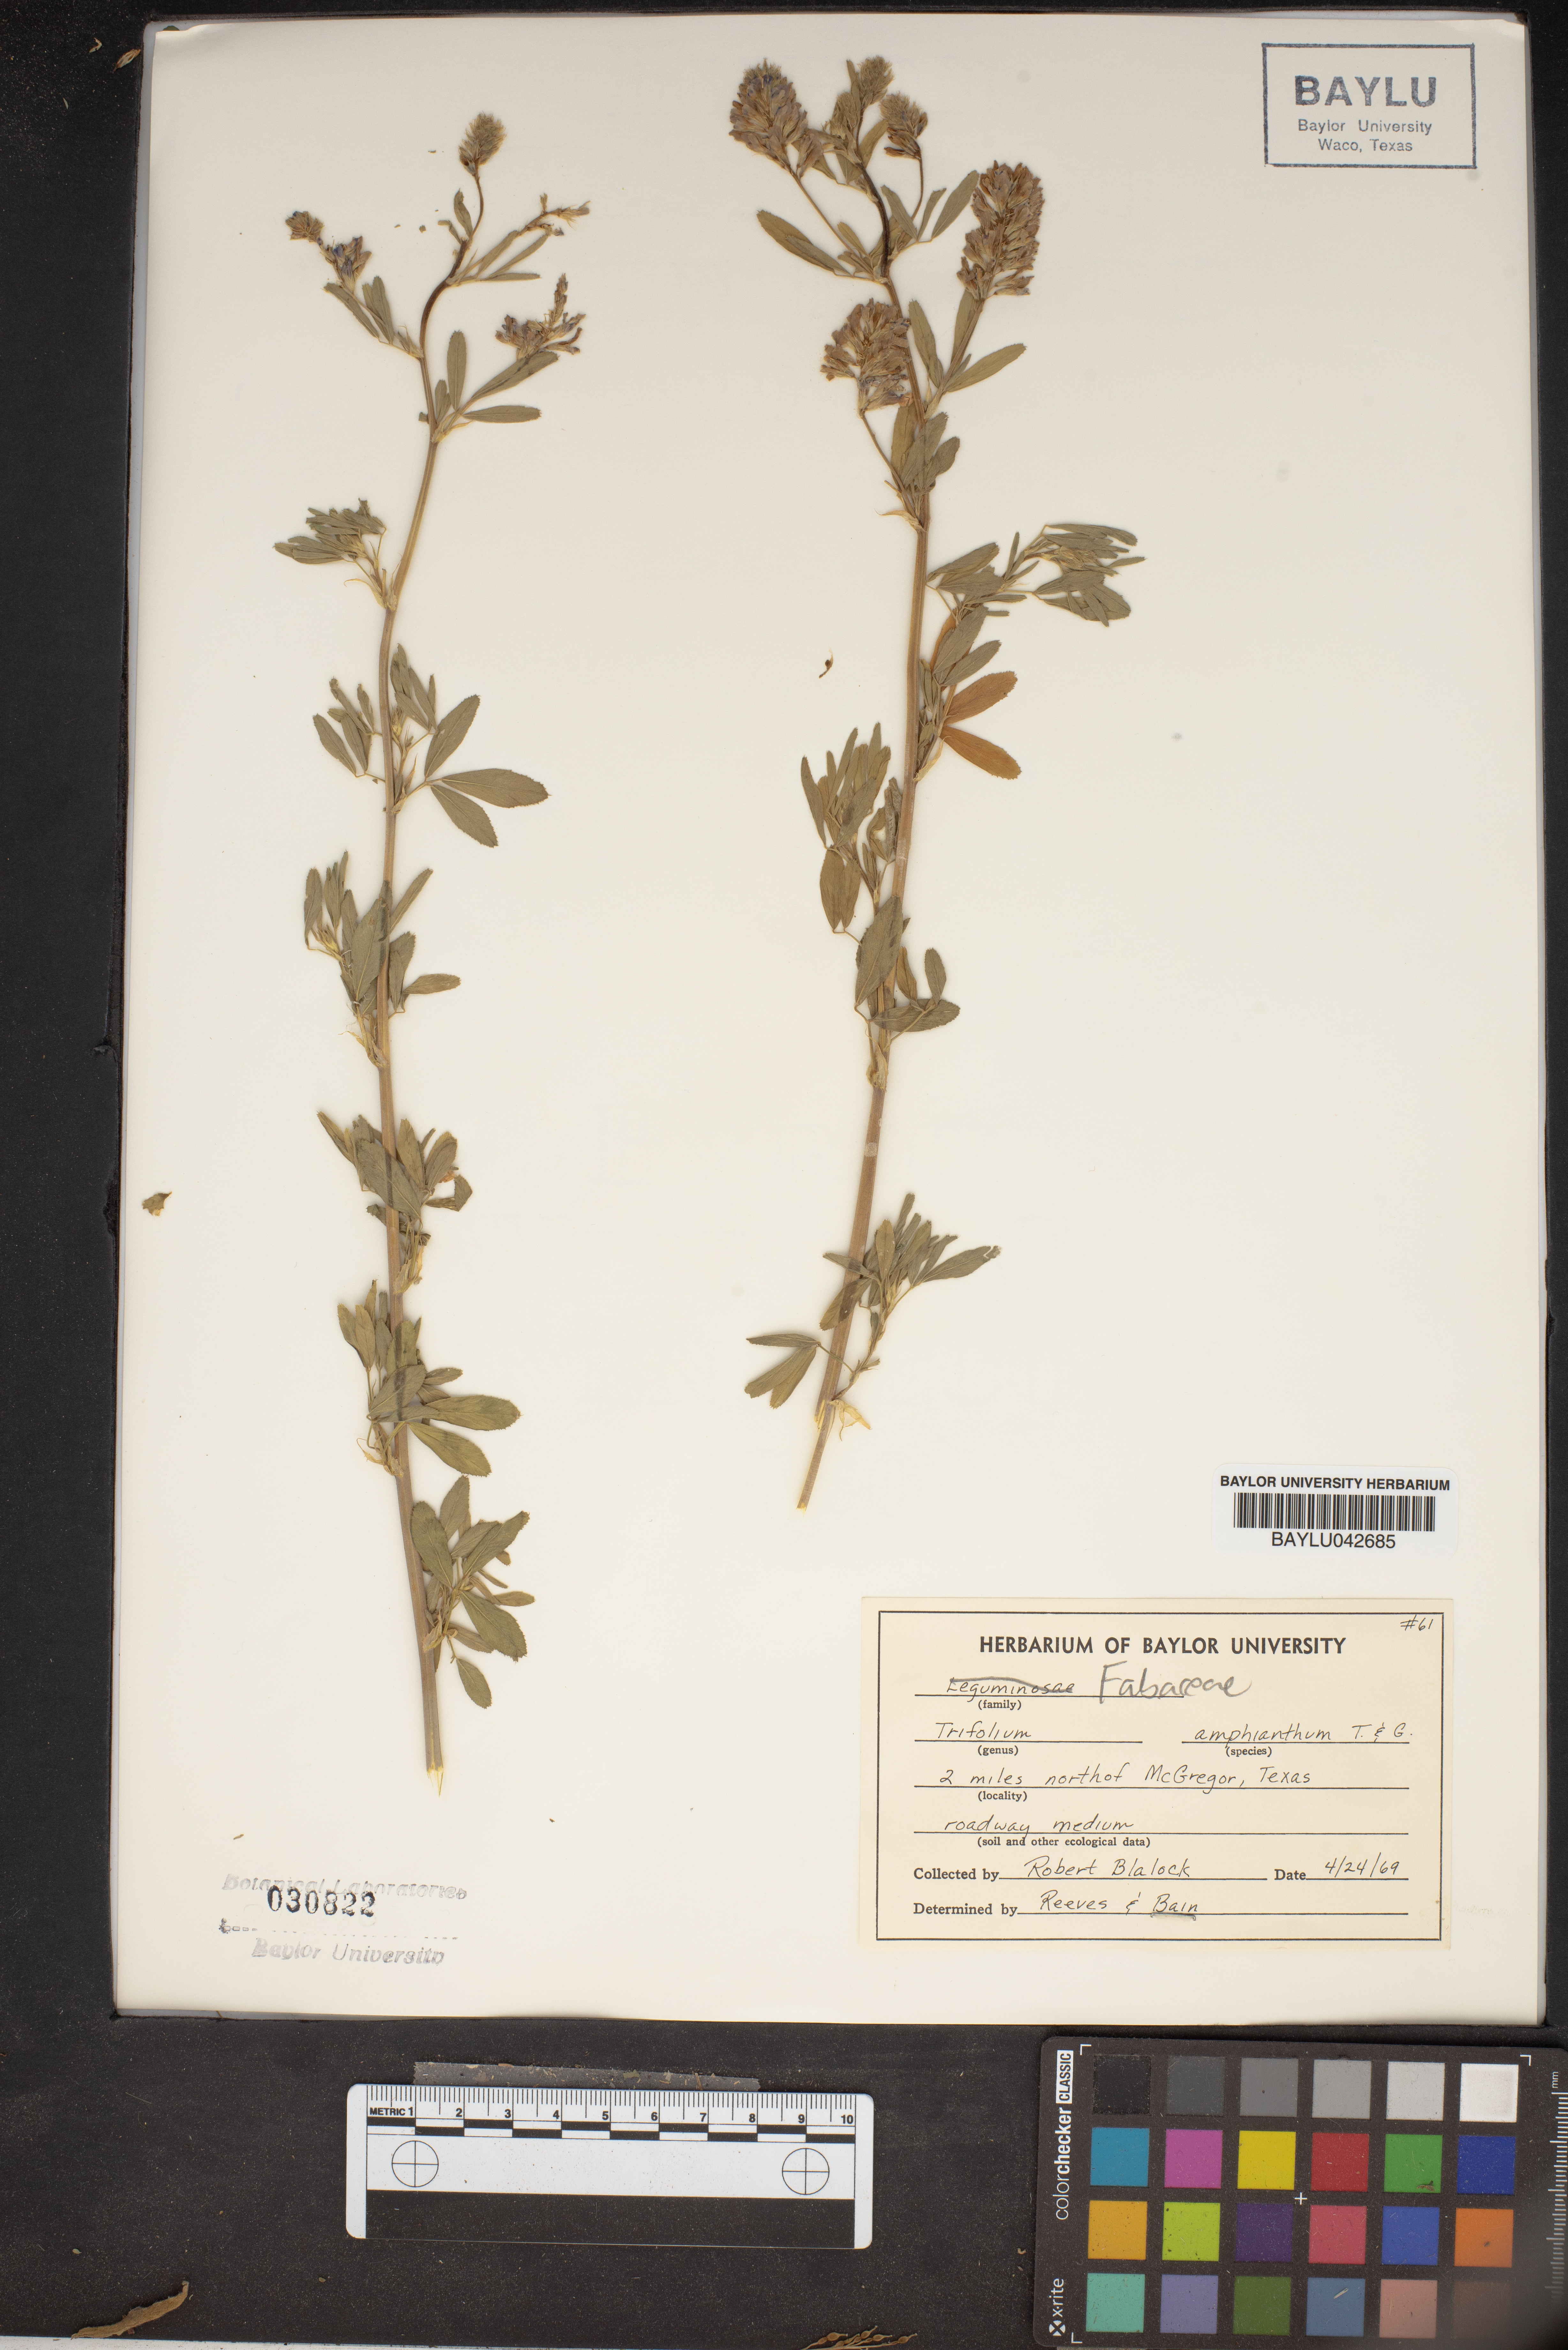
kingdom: Plantae
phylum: Tracheophyta
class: Magnoliopsida
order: Fabales
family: Fabaceae
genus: Trifolium
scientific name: Trifolium amphianthum
